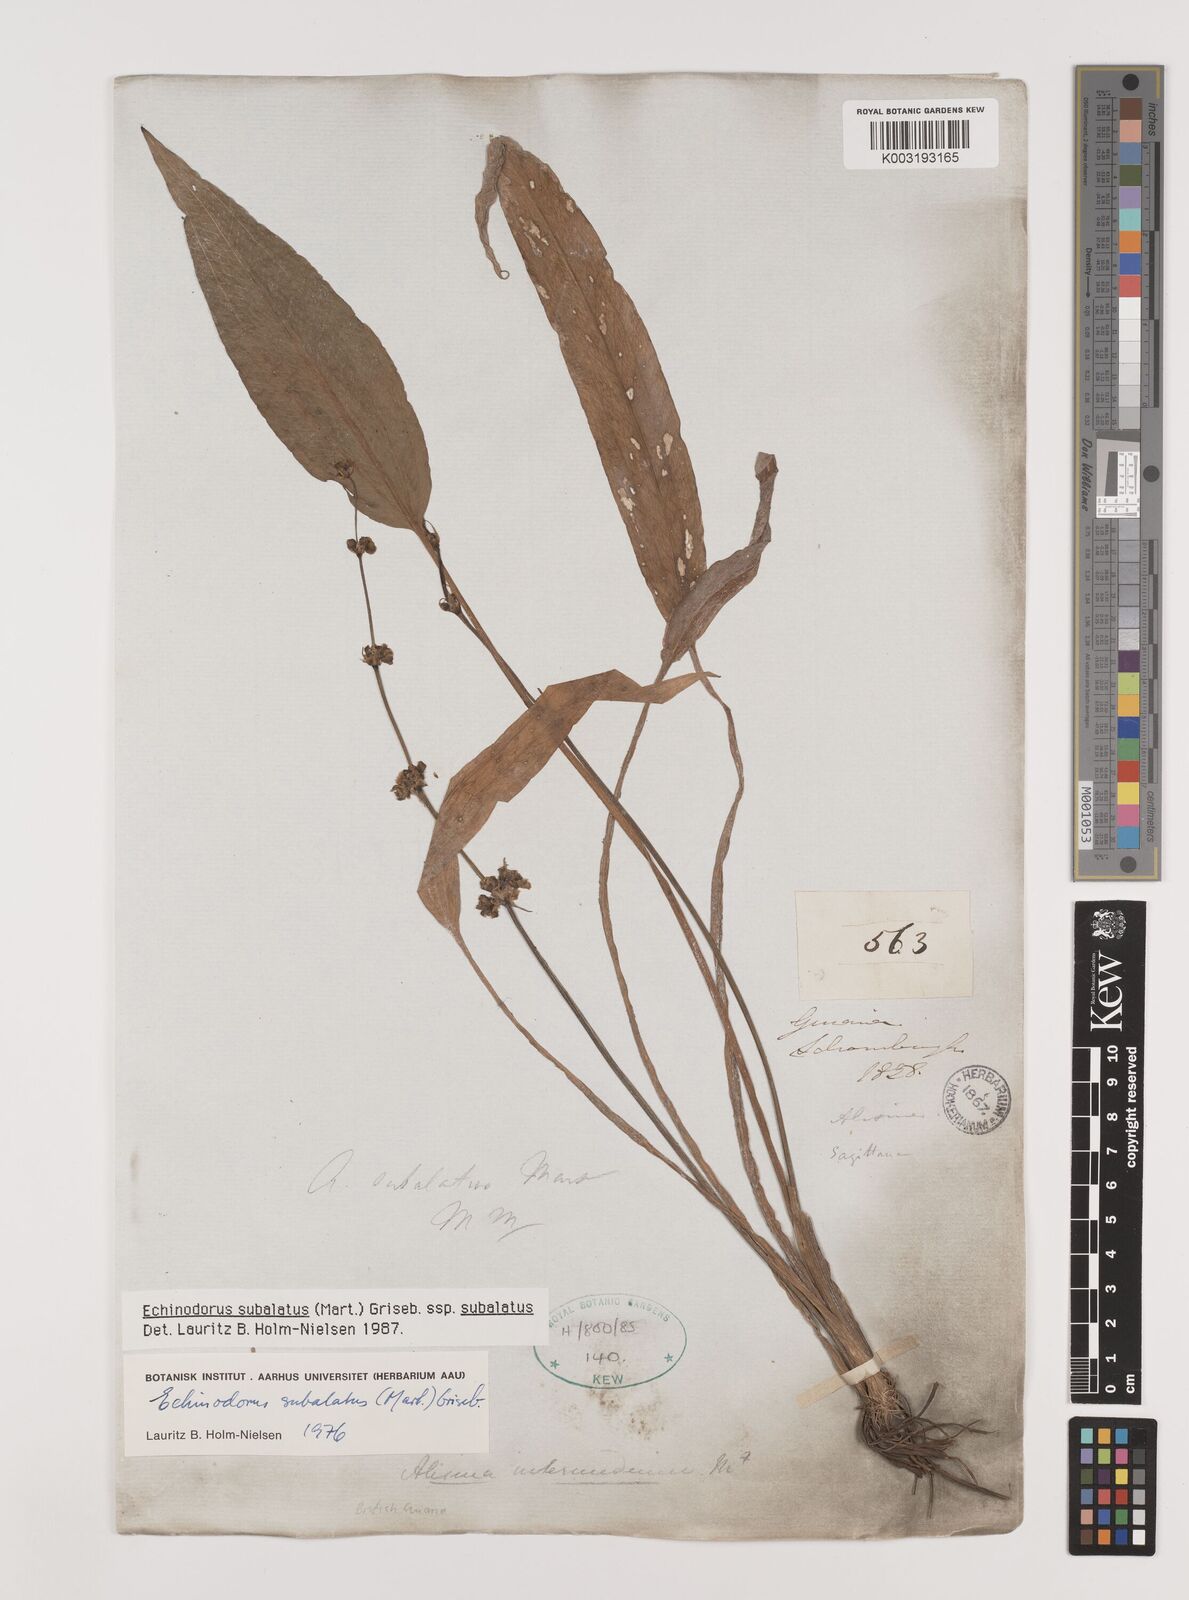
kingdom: Plantae
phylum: Tracheophyta
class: Liliopsida
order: Alismatales
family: Alismataceae
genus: Echinodorus
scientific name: Echinodorus
